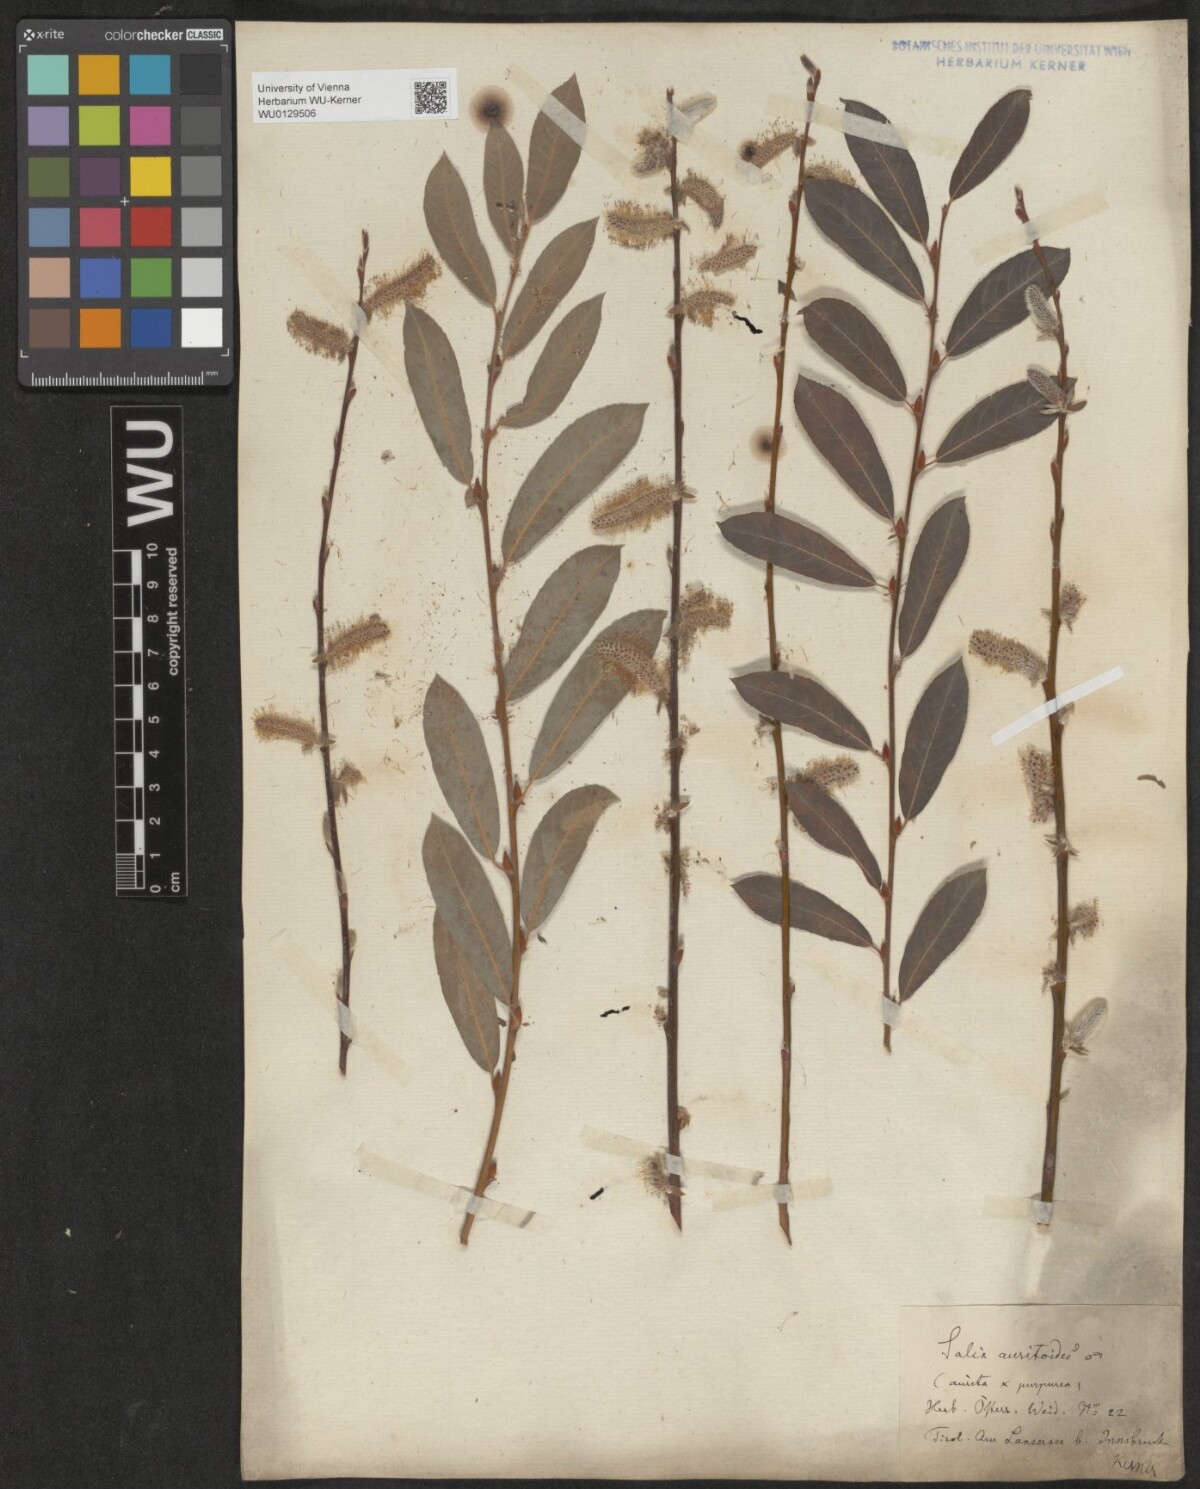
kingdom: Plantae
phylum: Tracheophyta
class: Magnoliopsida
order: Malpighiales
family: Salicaceae
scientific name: Salicaceae
